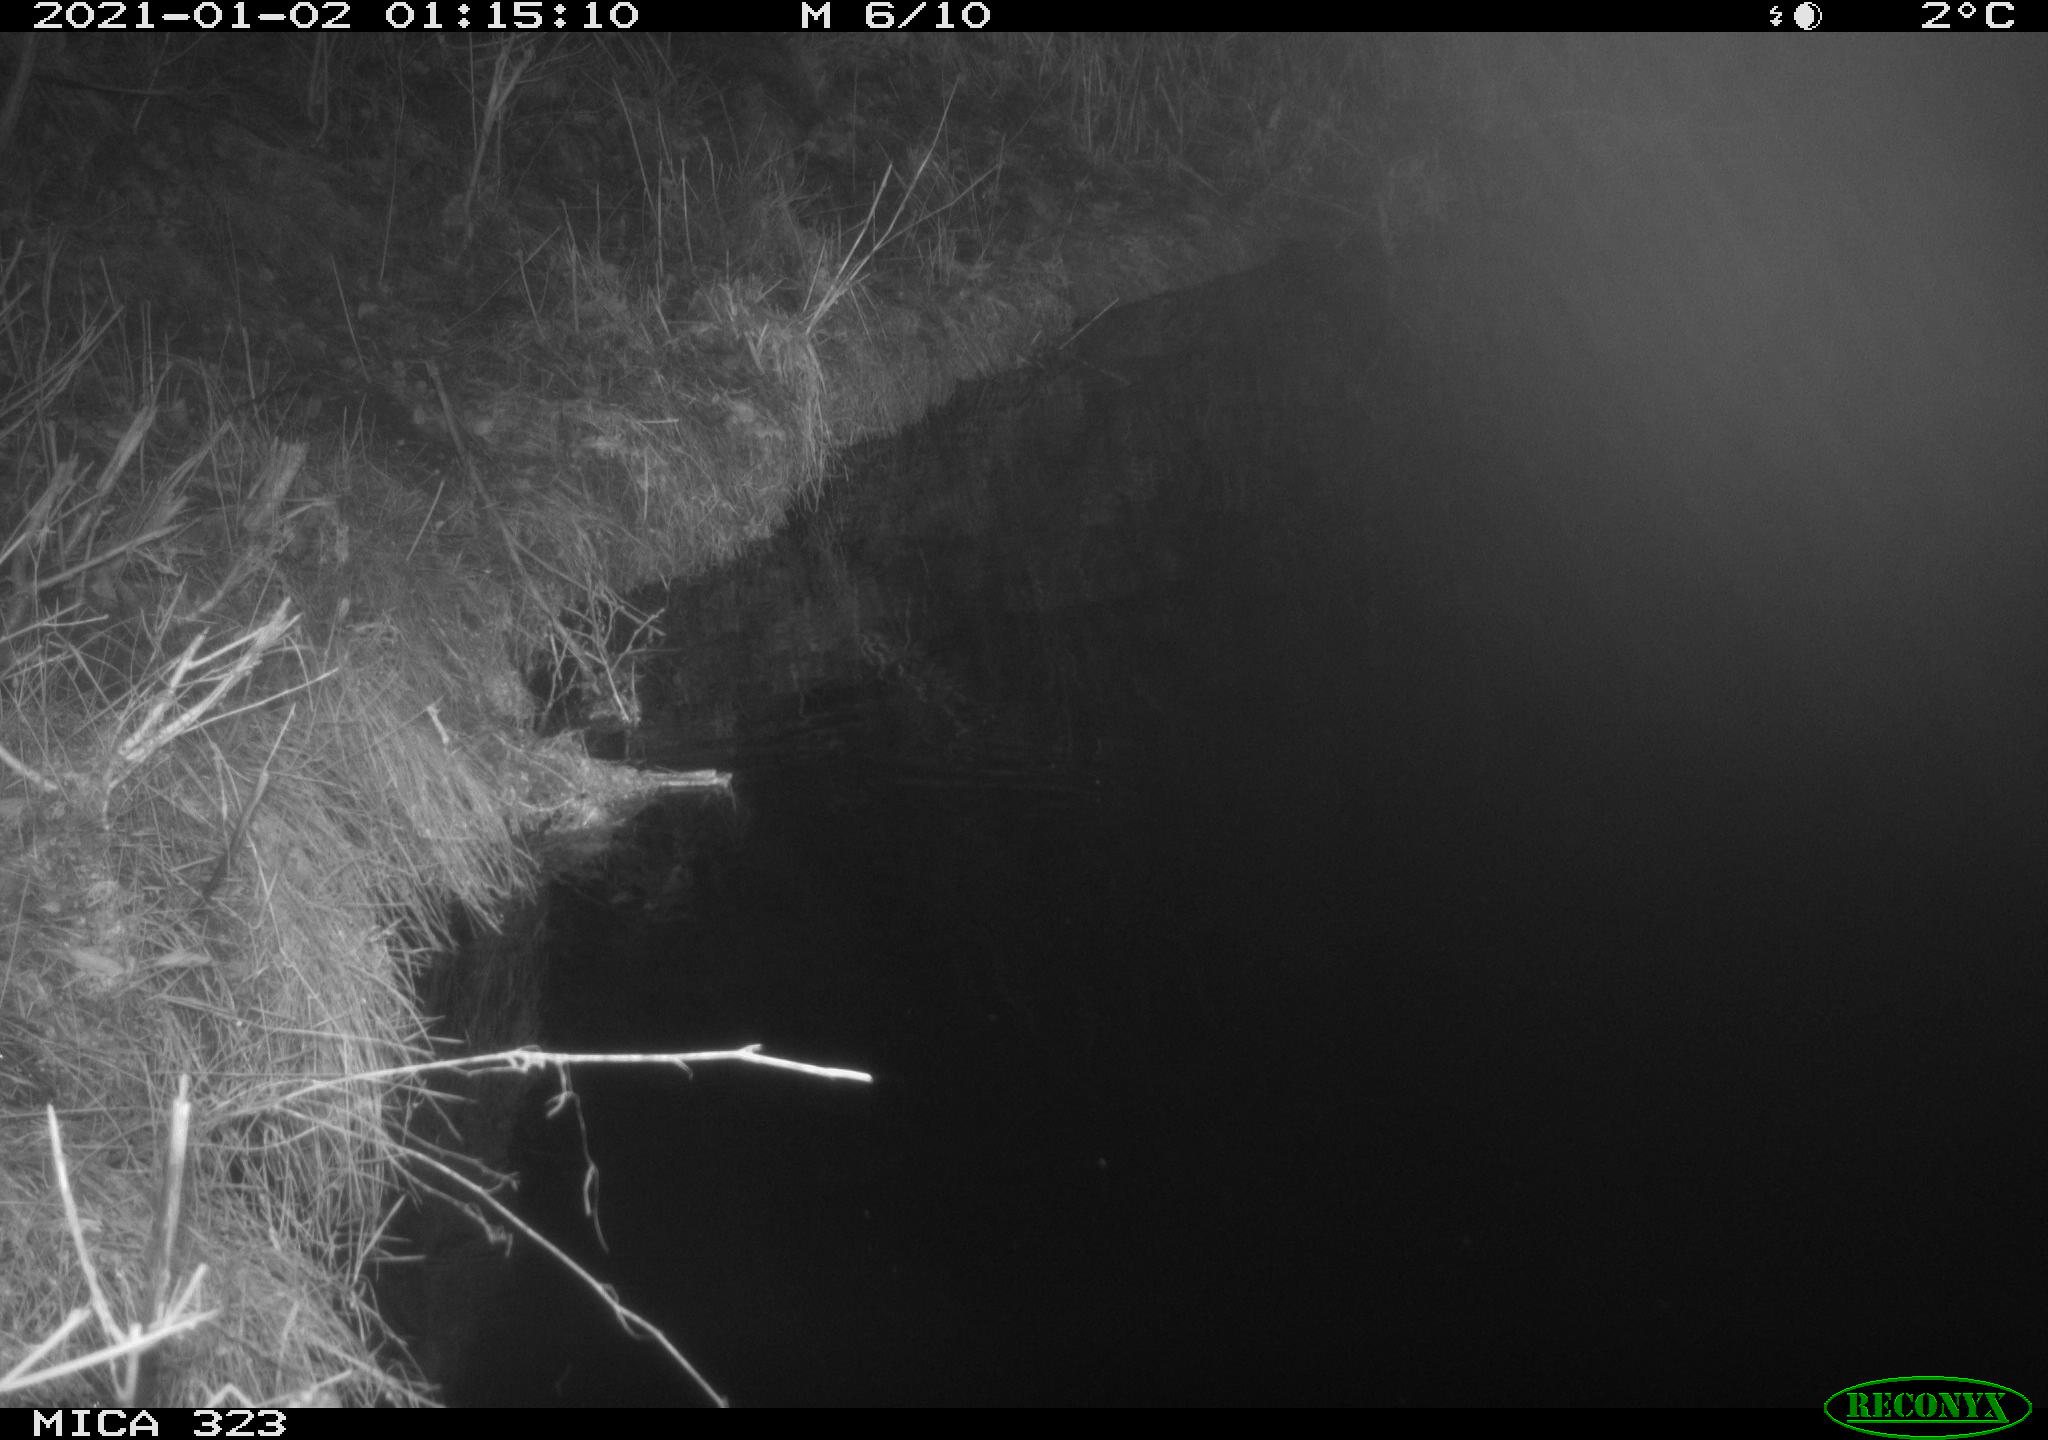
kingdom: Animalia
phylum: Chordata
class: Mammalia
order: Rodentia
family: Myocastoridae
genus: Myocastor
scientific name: Myocastor coypus
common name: Coypu
